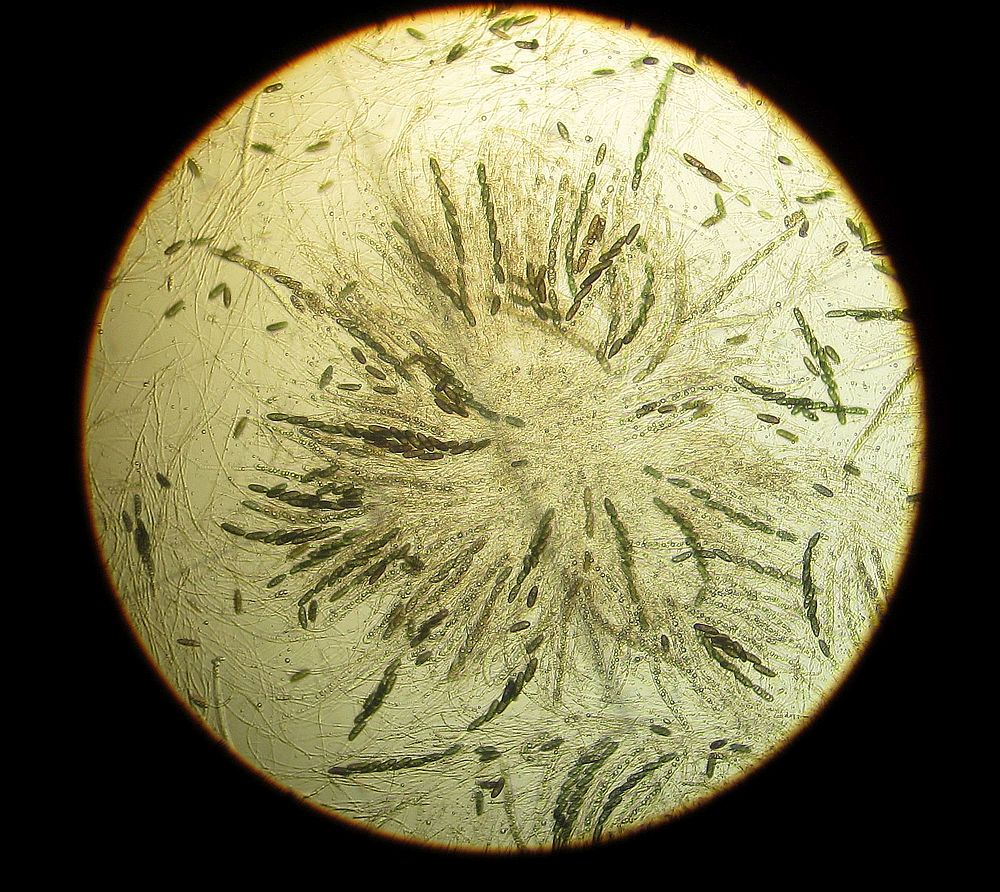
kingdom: Fungi
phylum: Ascomycota
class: Sordariomycetes
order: Xylariales
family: Xylariaceae
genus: Euepixylon
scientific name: Euepixylon udum
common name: ege-kuldyne
